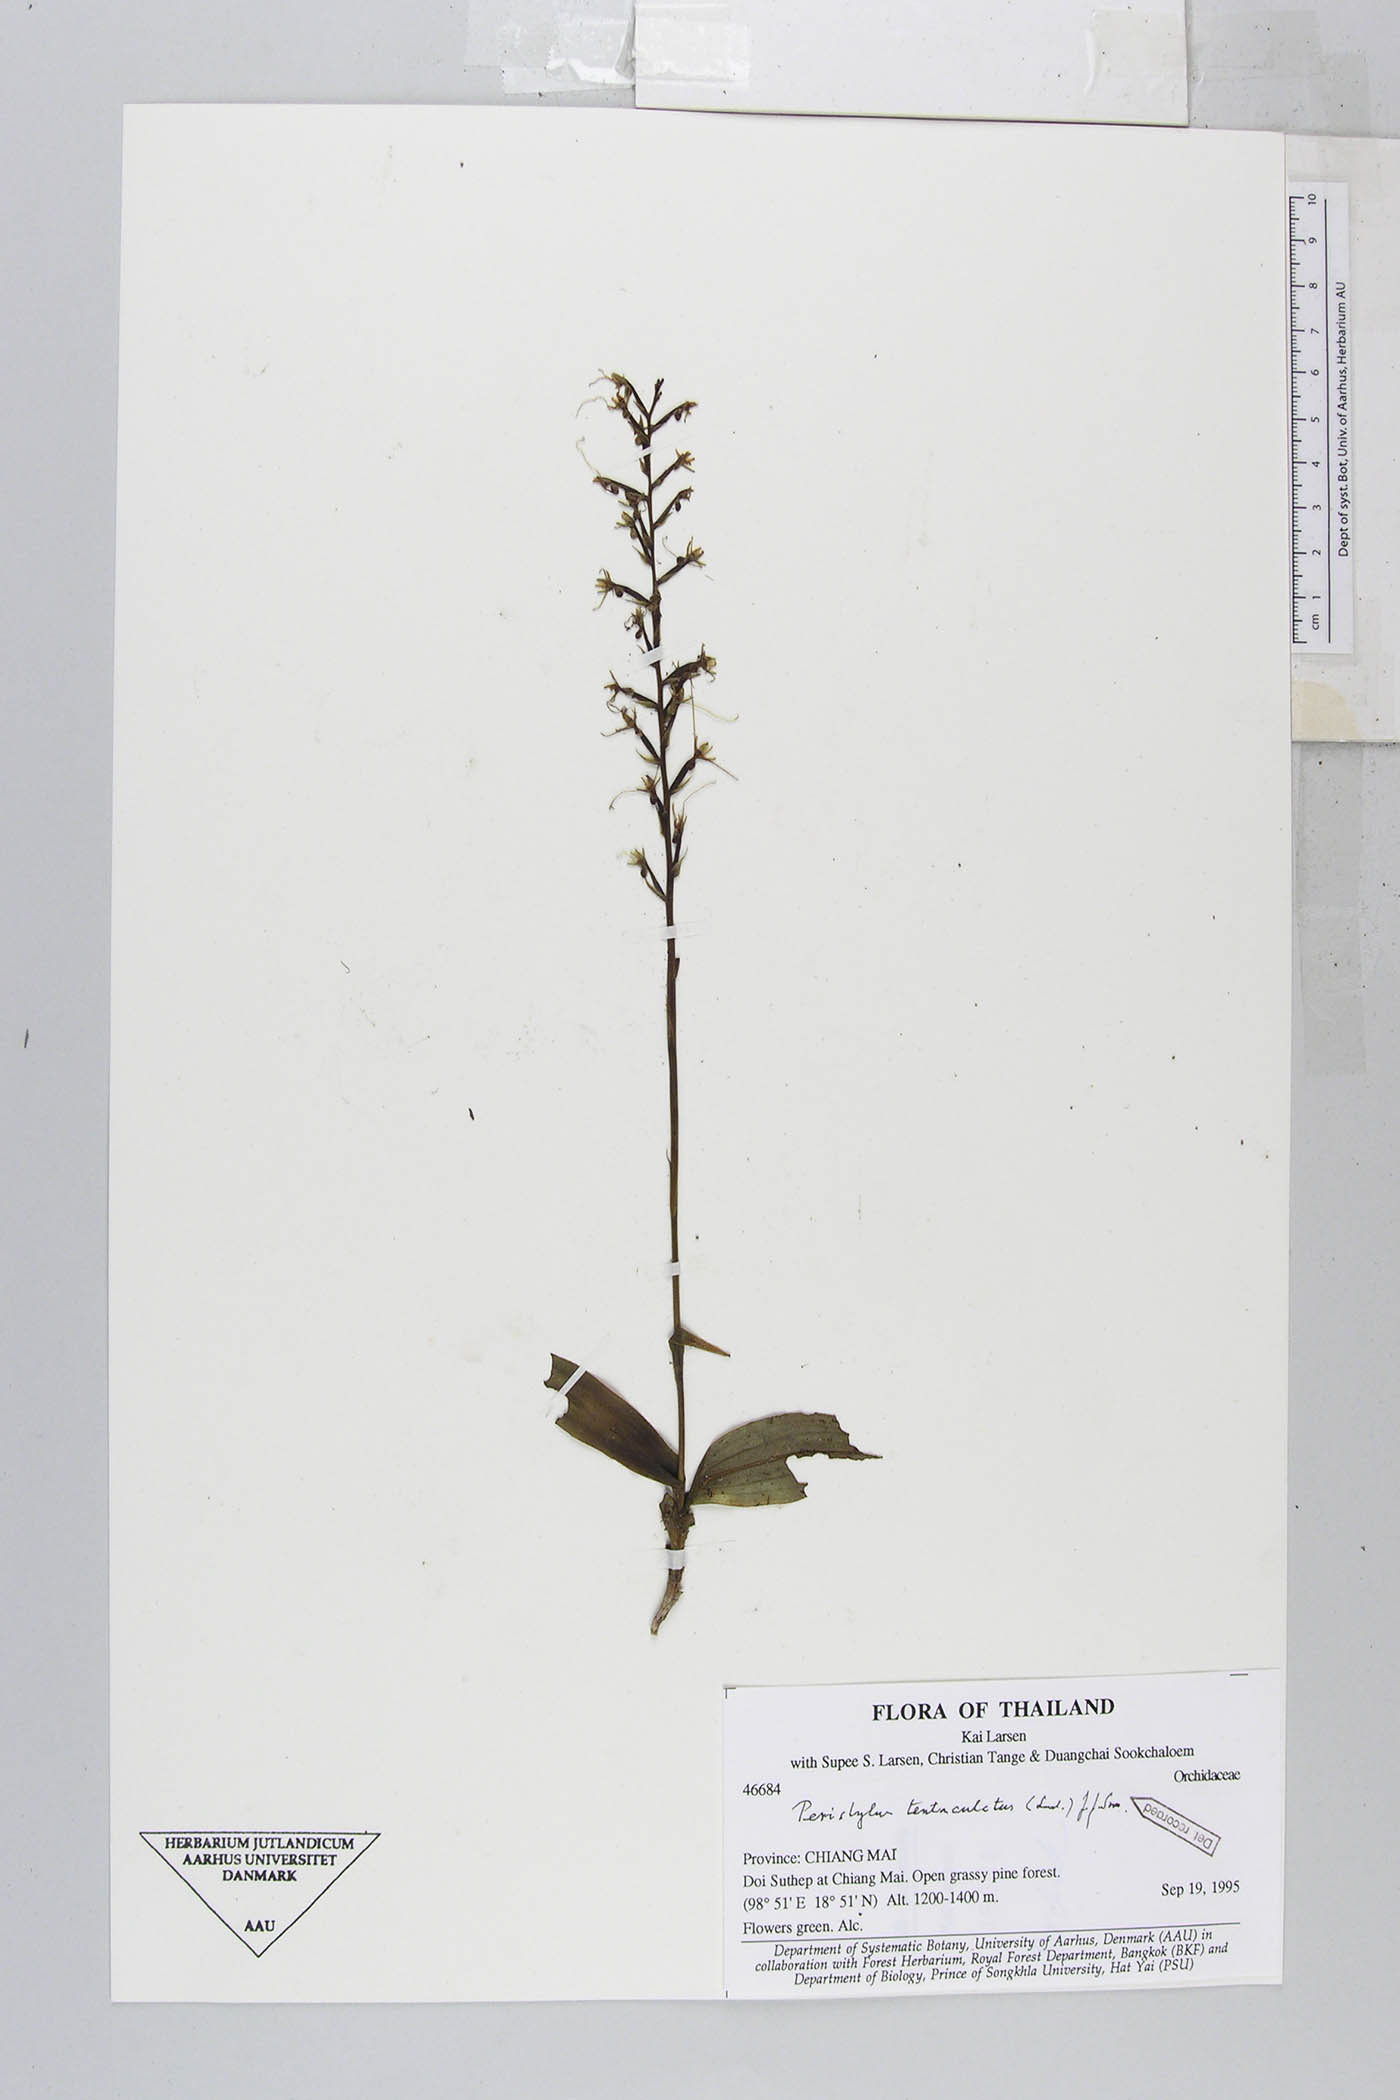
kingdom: Plantae
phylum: Tracheophyta
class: Liliopsida
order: Asparagales
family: Orchidaceae
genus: Peristylus
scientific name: Peristylus tentaculatus
